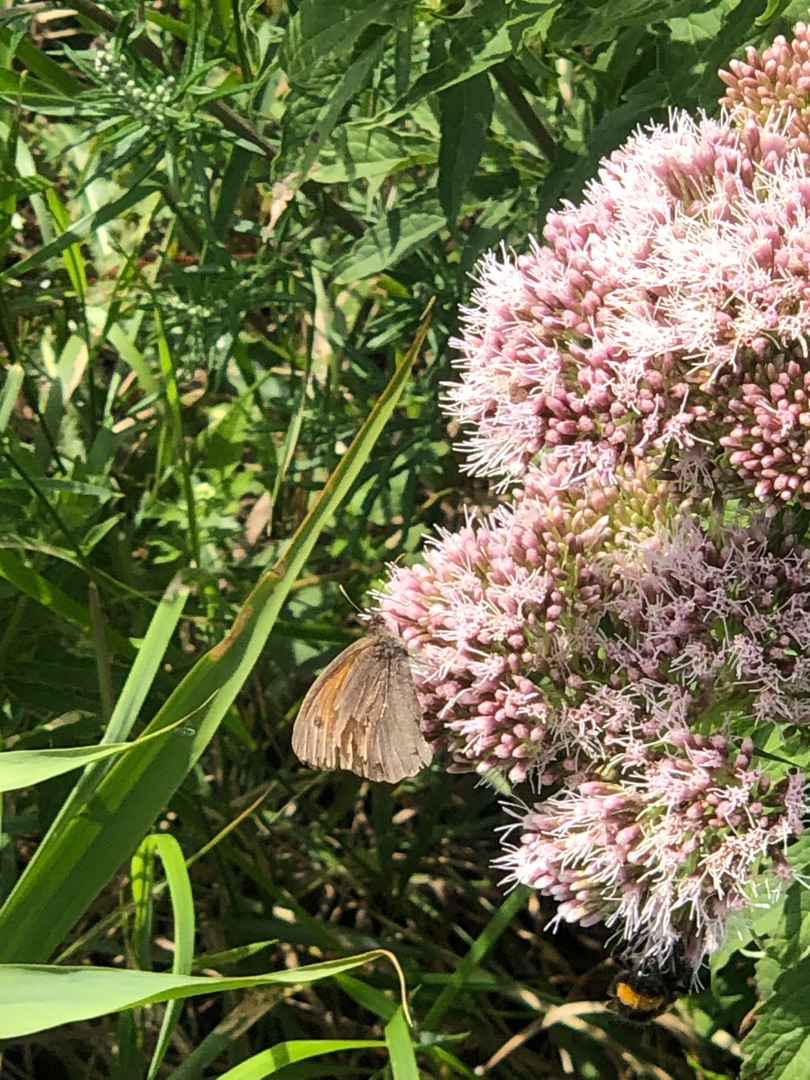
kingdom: Animalia
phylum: Arthropoda
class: Insecta
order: Lepidoptera
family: Nymphalidae
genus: Issoria
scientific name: Issoria lathonia
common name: Storplettet perlemorsommerfugl
